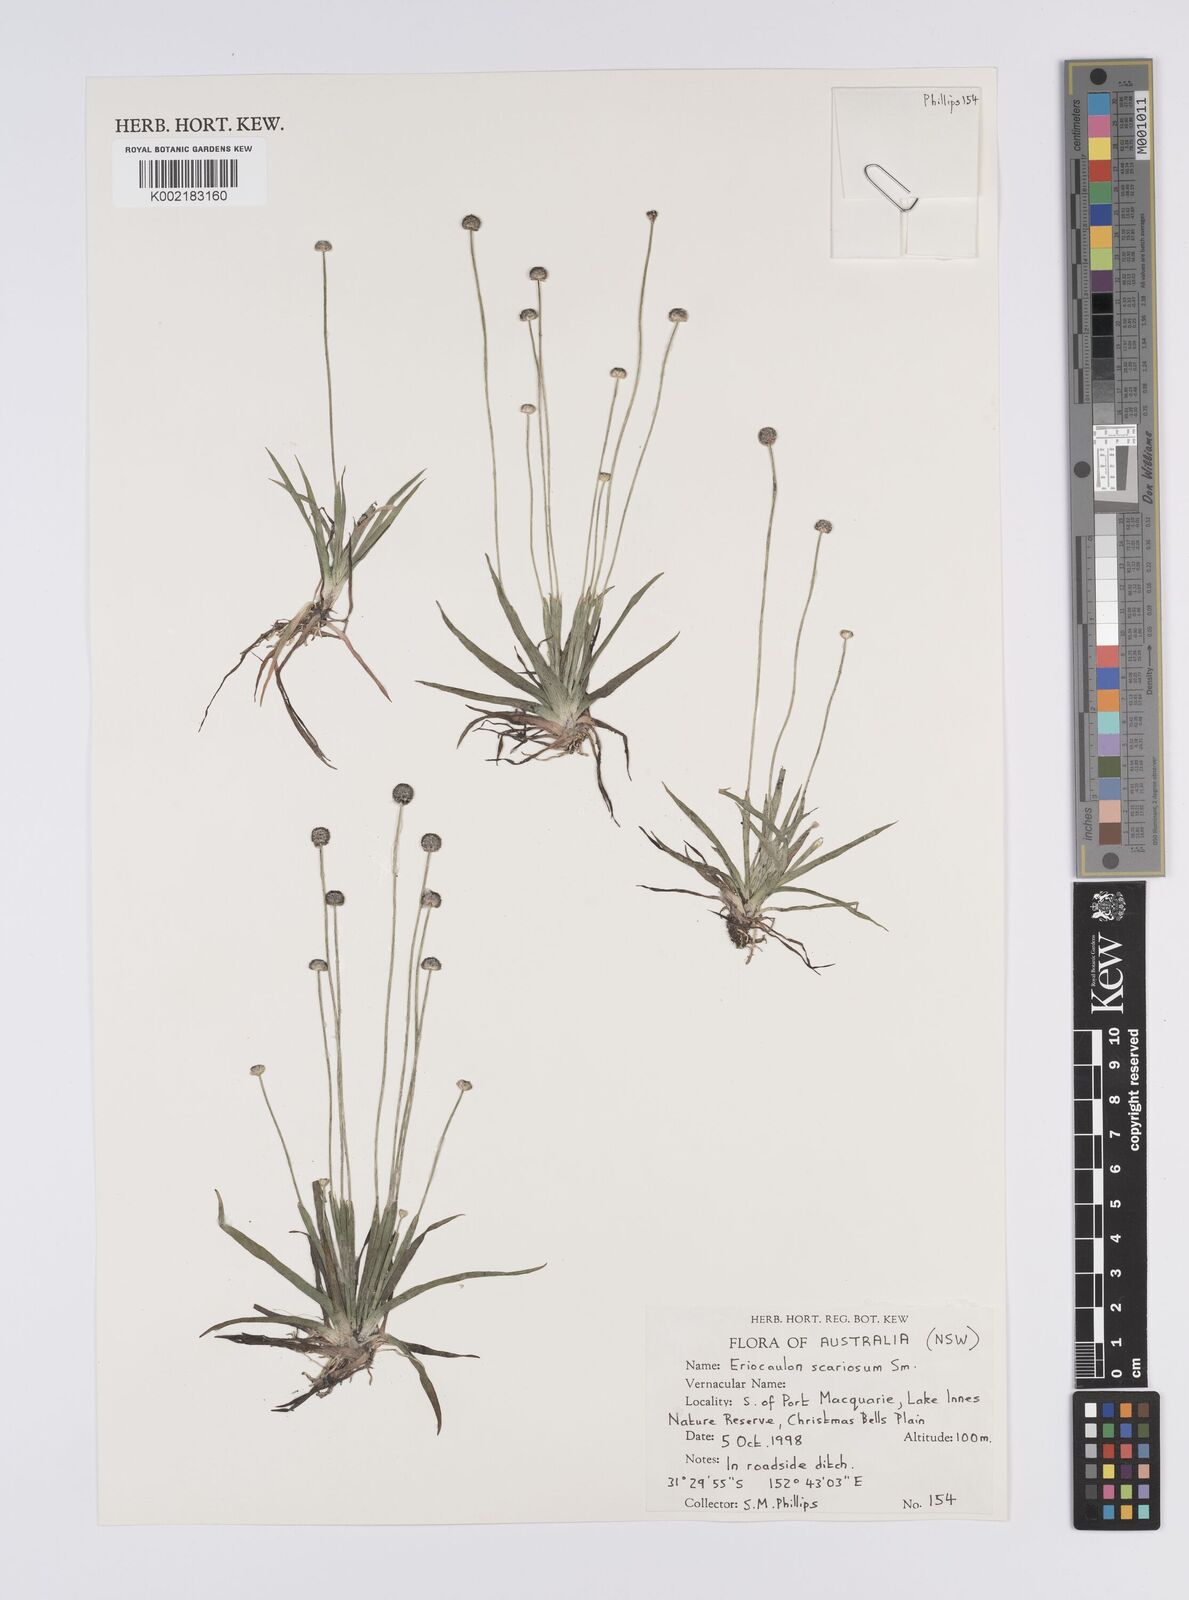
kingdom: Plantae
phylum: Tracheophyta
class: Liliopsida
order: Poales
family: Eriocaulaceae
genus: Eriocaulon
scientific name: Eriocaulon scariosum
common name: Rough pipewort
